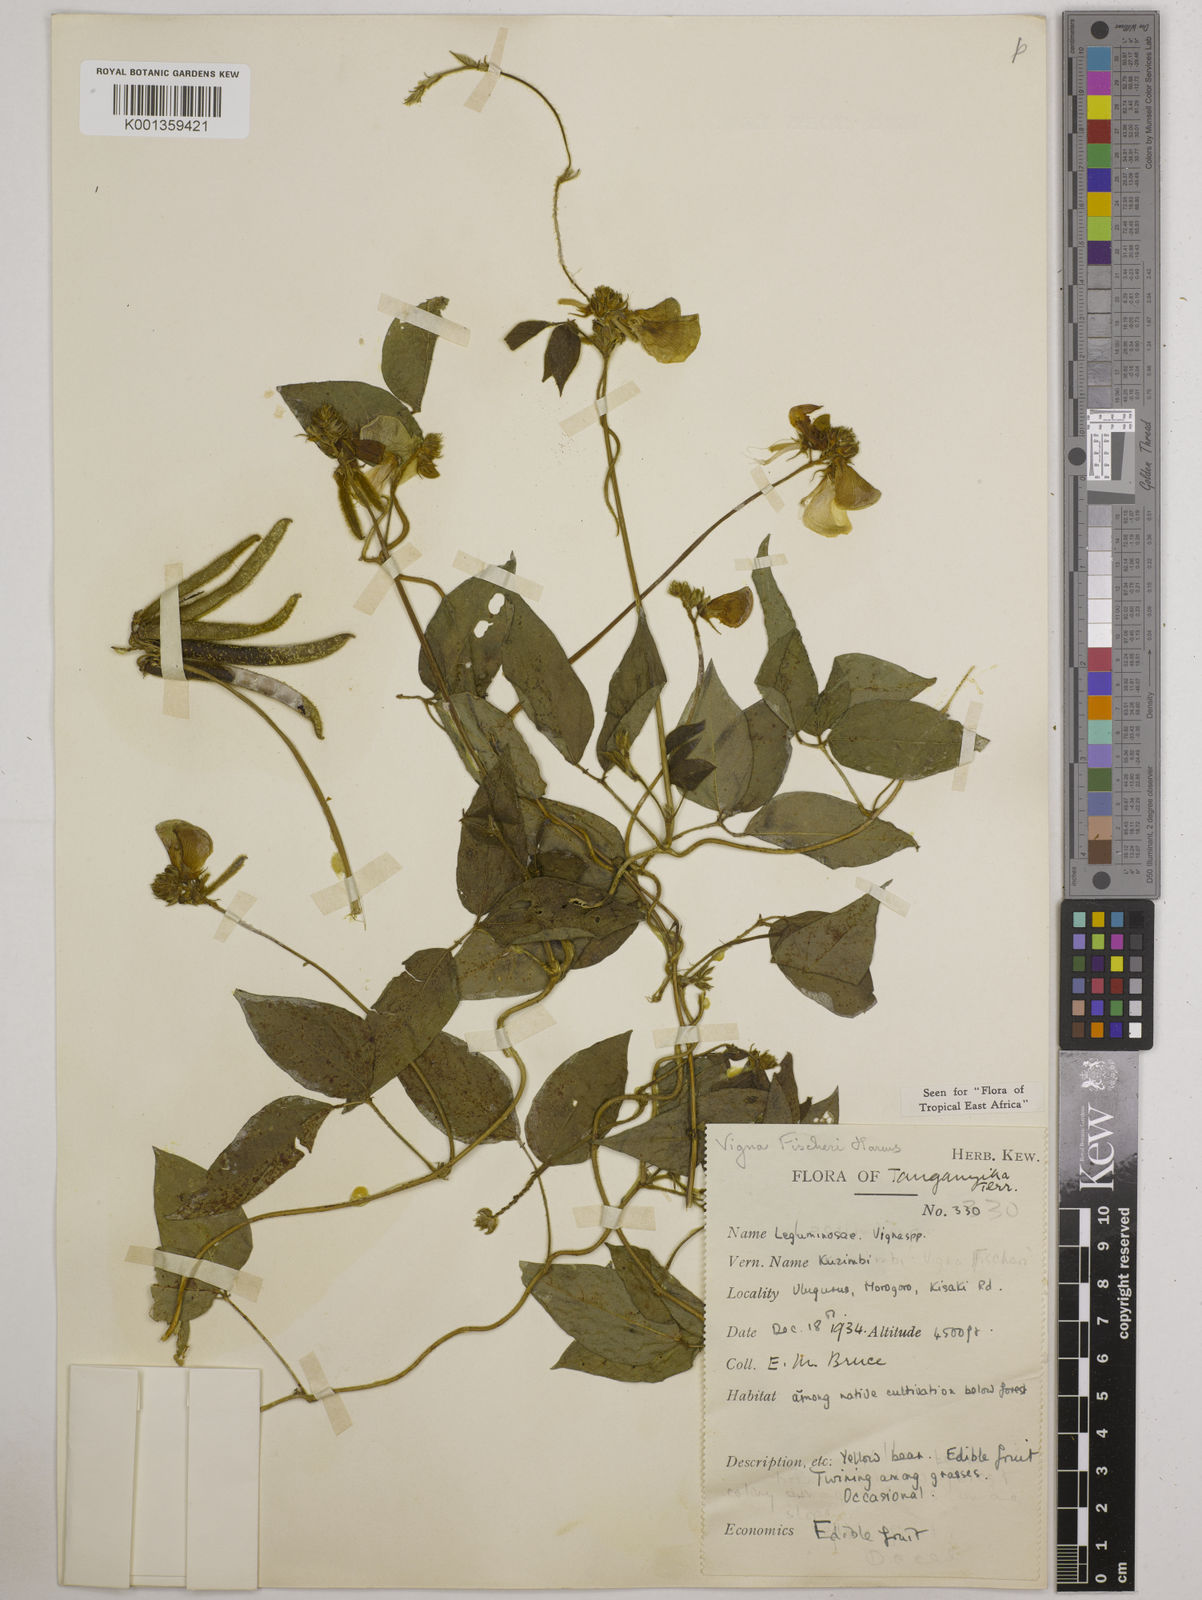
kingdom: Plantae
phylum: Tracheophyta
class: Magnoliopsida
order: Fabales
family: Fabaceae
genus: Vigna
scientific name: Vigna fischeri
